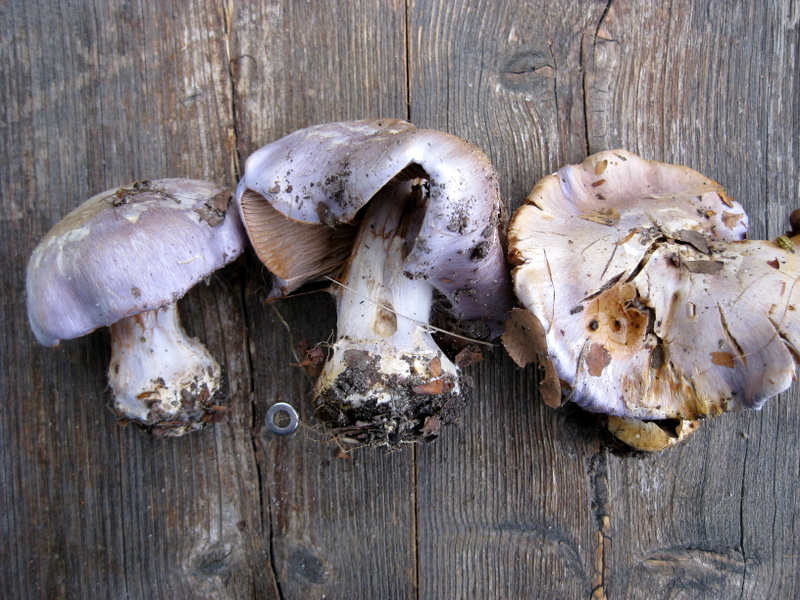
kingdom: Fungi
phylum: Basidiomycota
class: Agaricomycetes
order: Agaricales
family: Cortinariaceae
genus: Cortinarius
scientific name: Cortinarius caerulescens
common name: blåkødet slørhat
